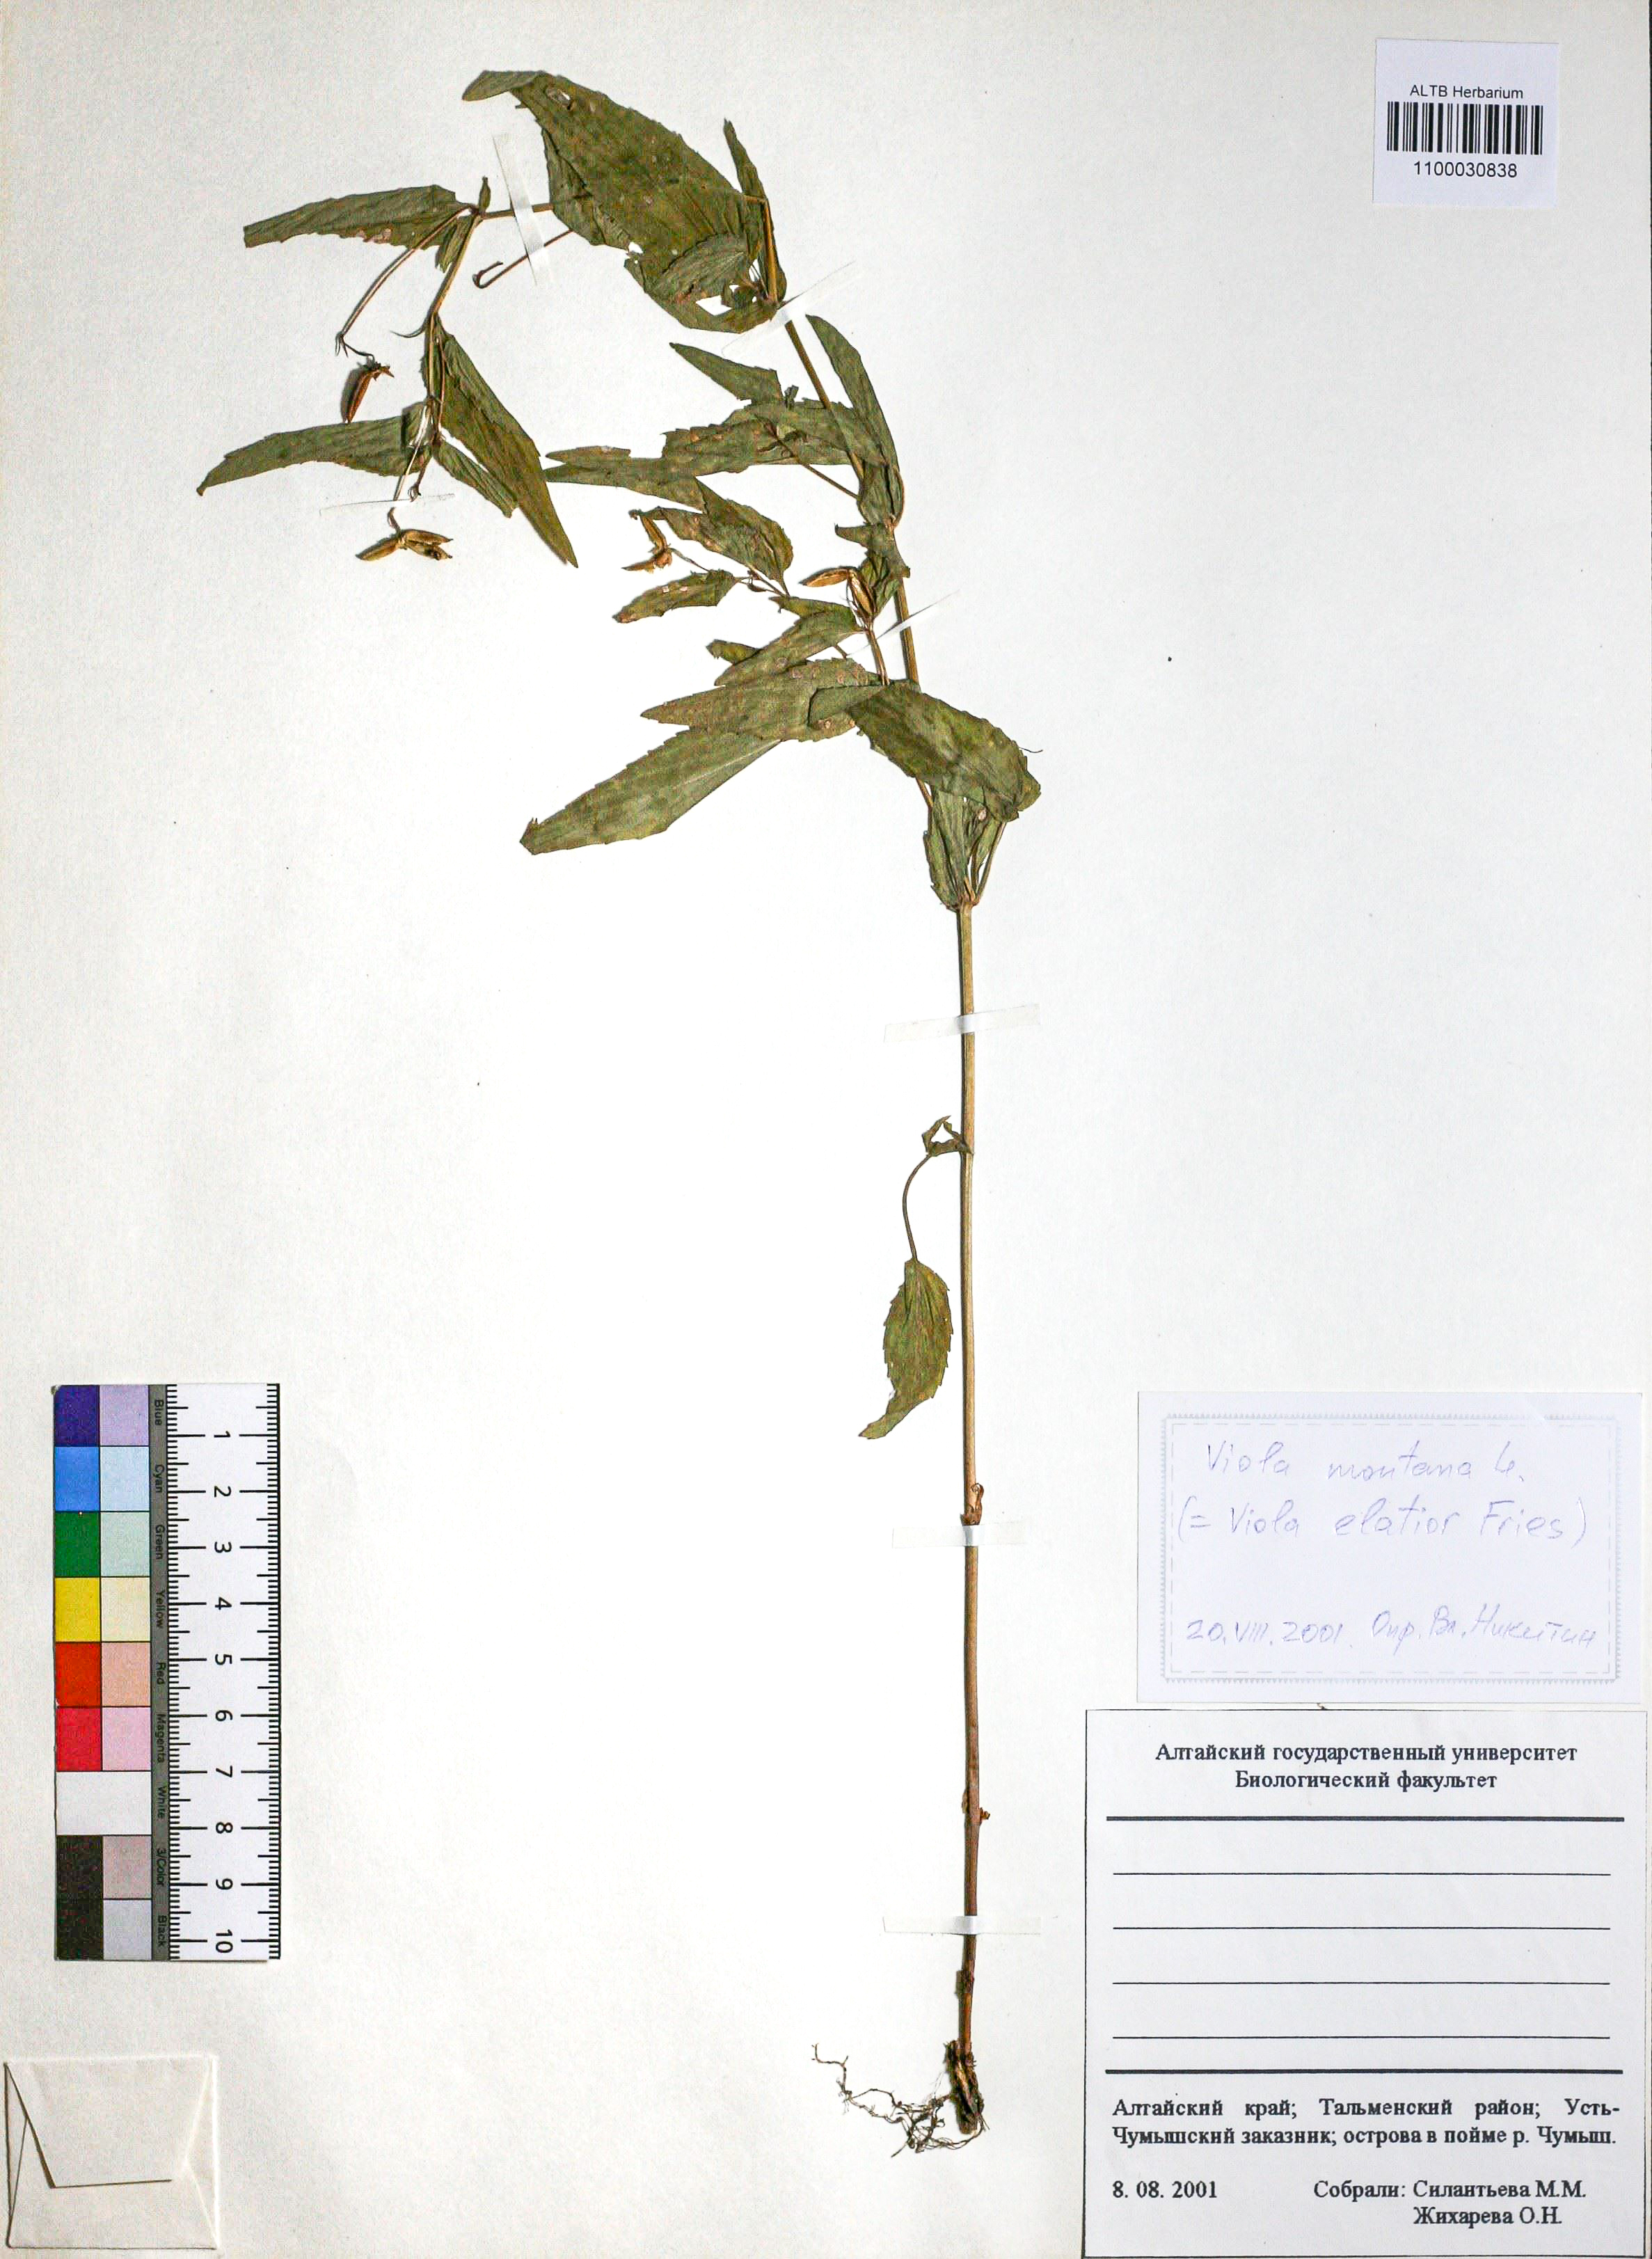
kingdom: Plantae
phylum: Tracheophyta
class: Magnoliopsida
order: Malpighiales
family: Violaceae
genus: Viola
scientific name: Viola ruppii
